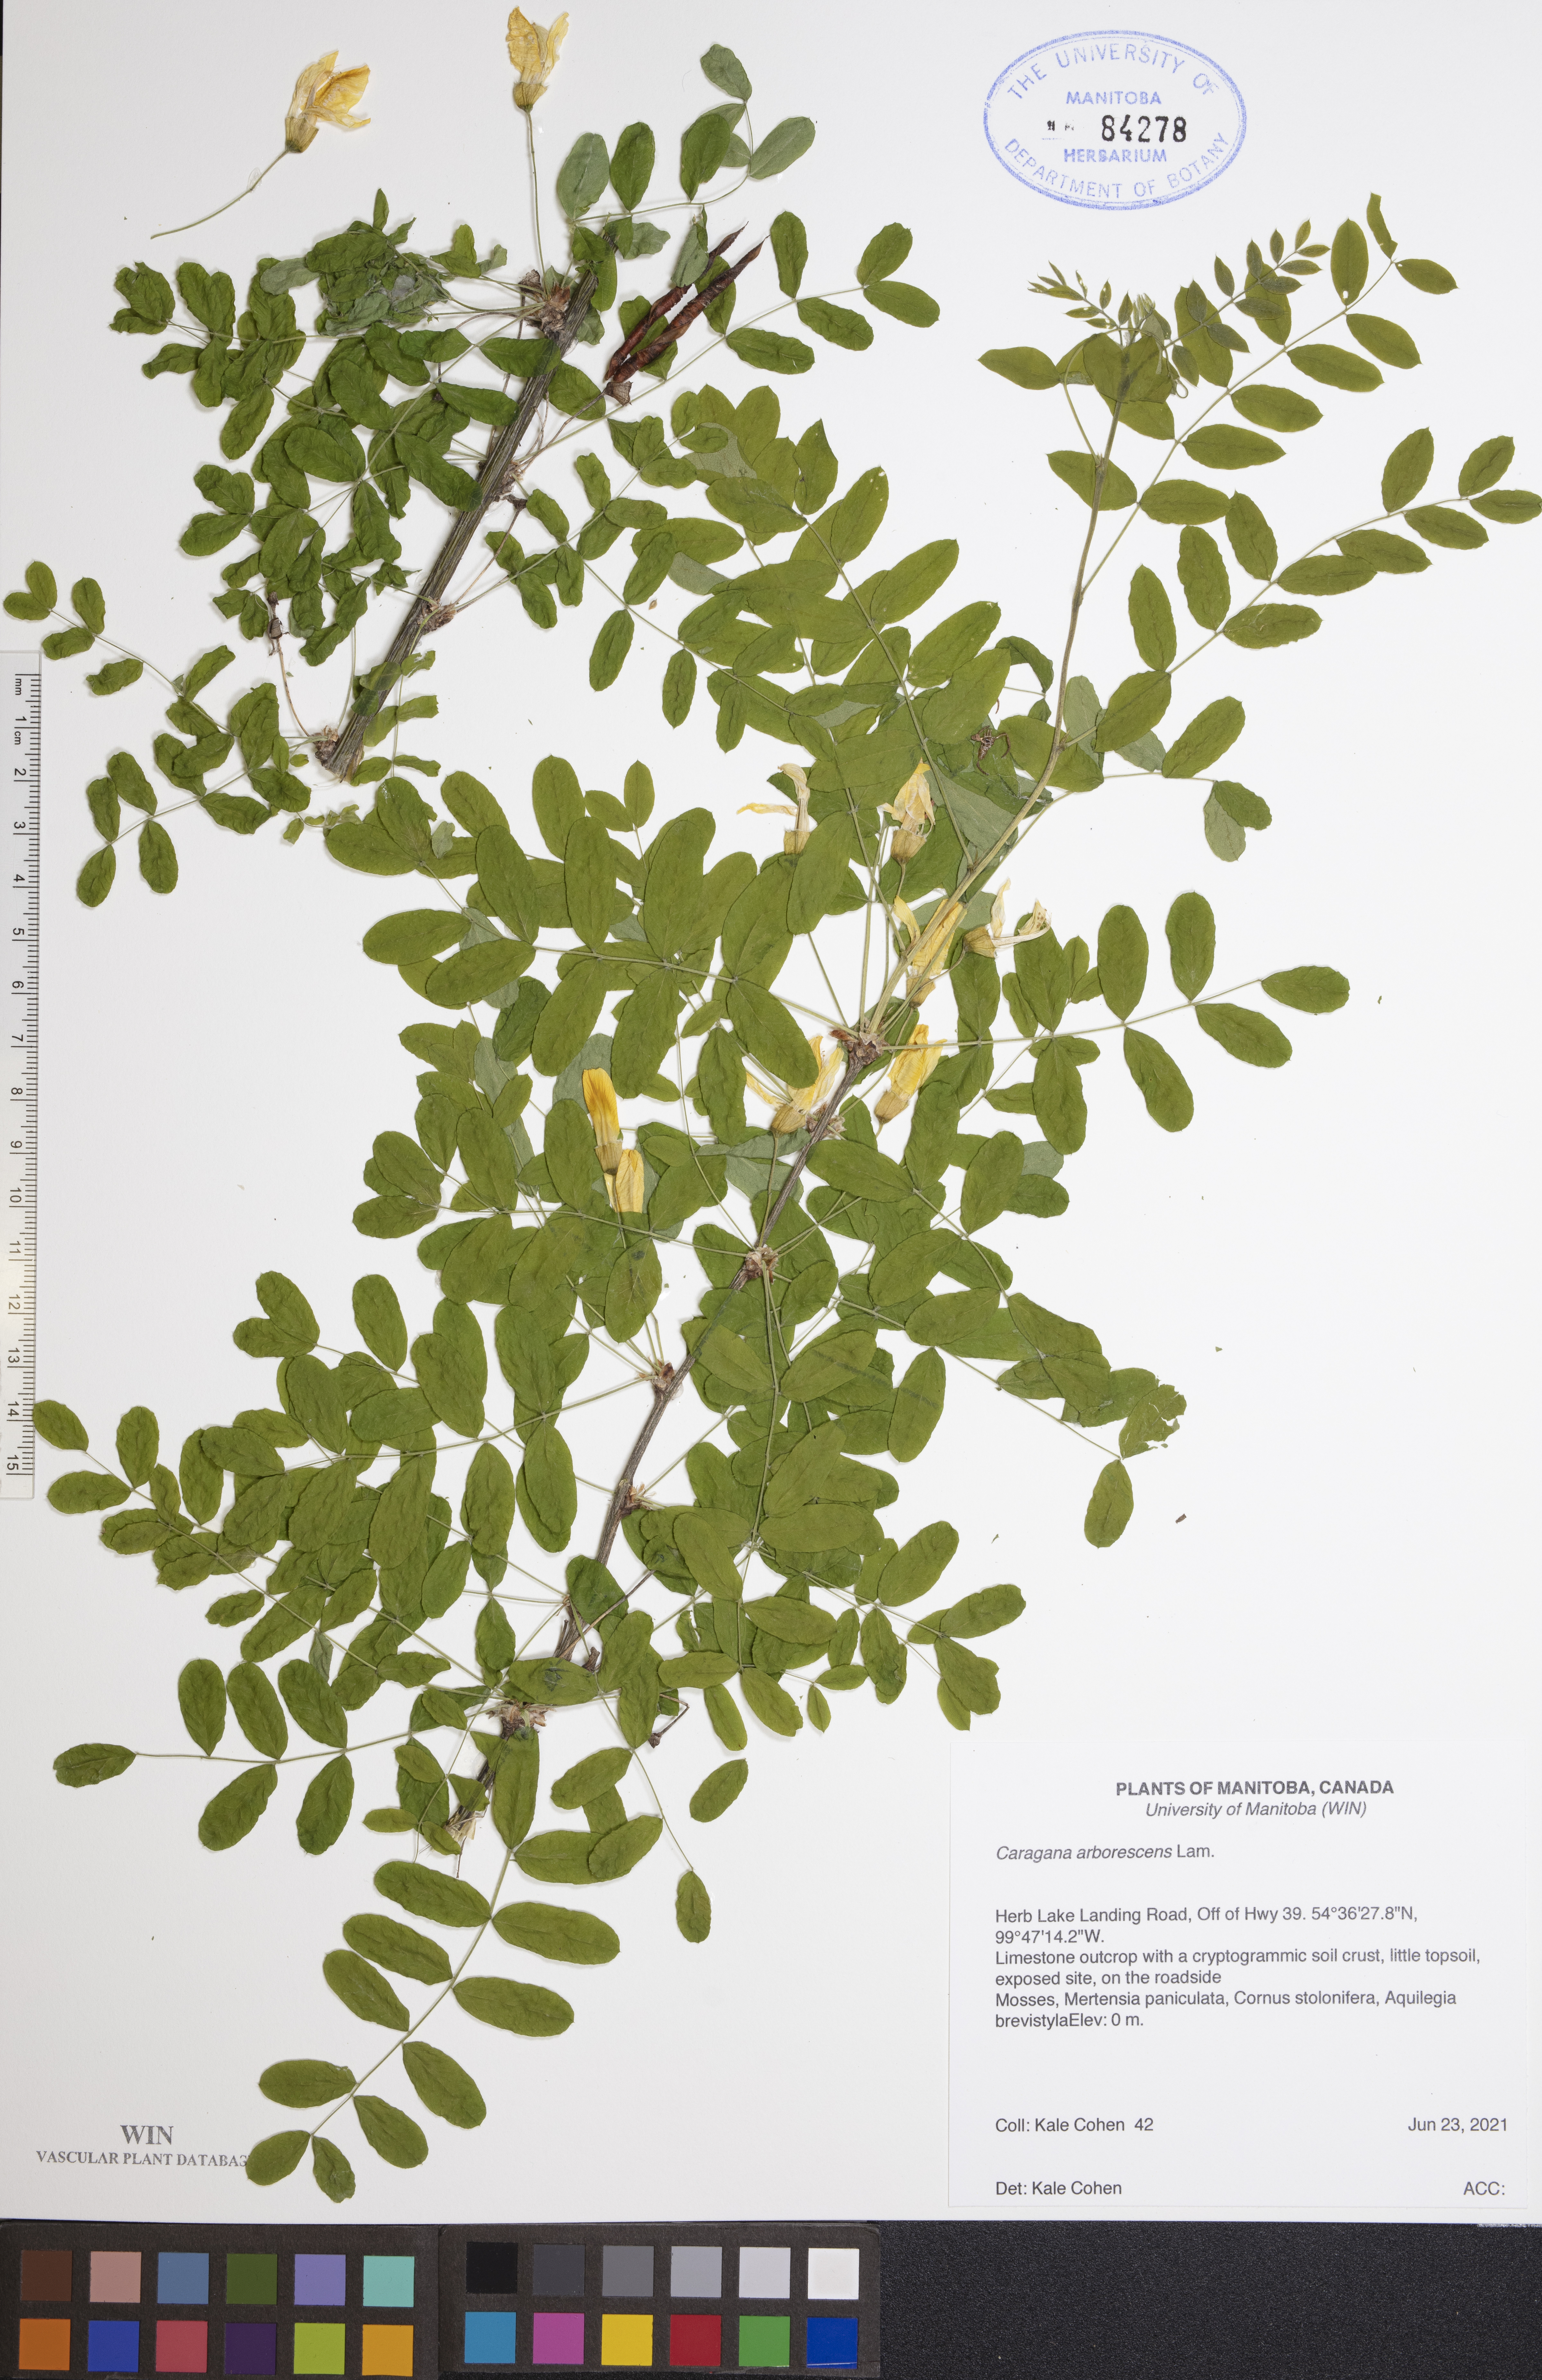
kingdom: Plantae
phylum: Tracheophyta
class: Magnoliopsida
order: Fabales
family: Fabaceae
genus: Caragana
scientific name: Caragana arborescens
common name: Siberian peashrub
